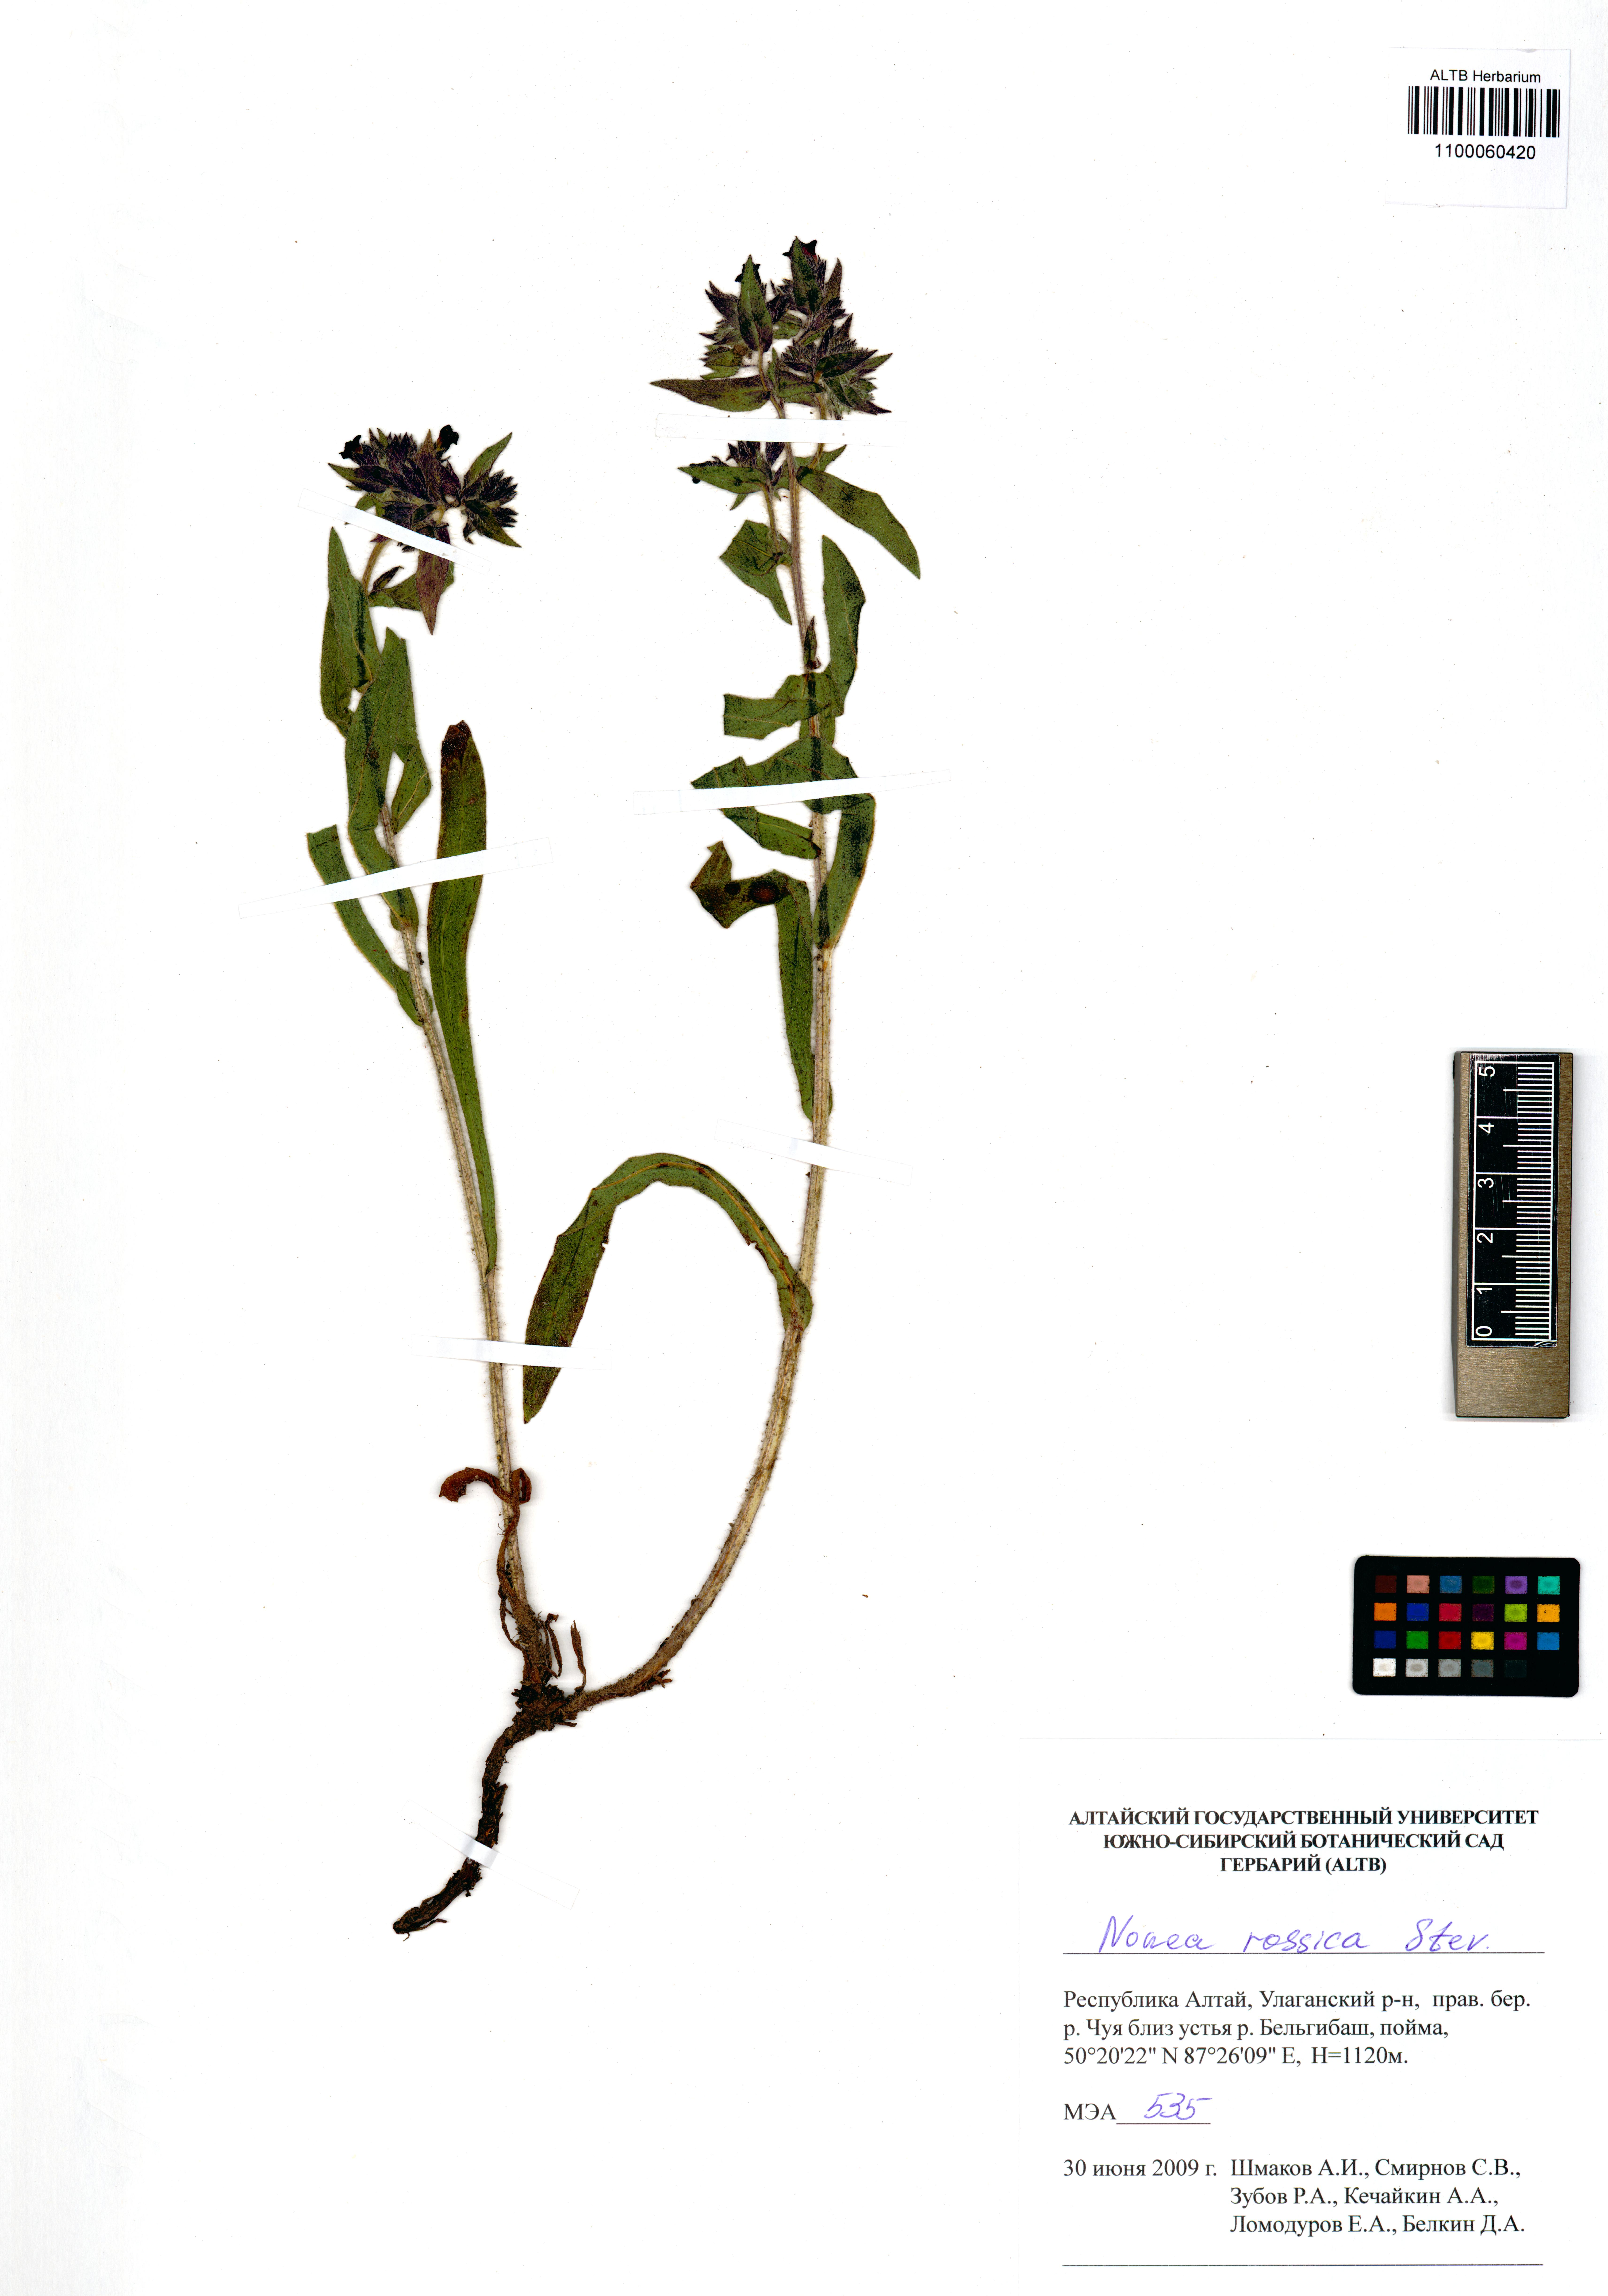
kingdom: Plantae
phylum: Tracheophyta
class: Magnoliopsida
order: Boraginales
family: Boraginaceae
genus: Nonea
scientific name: Nonea pulla
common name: Brown nonea
